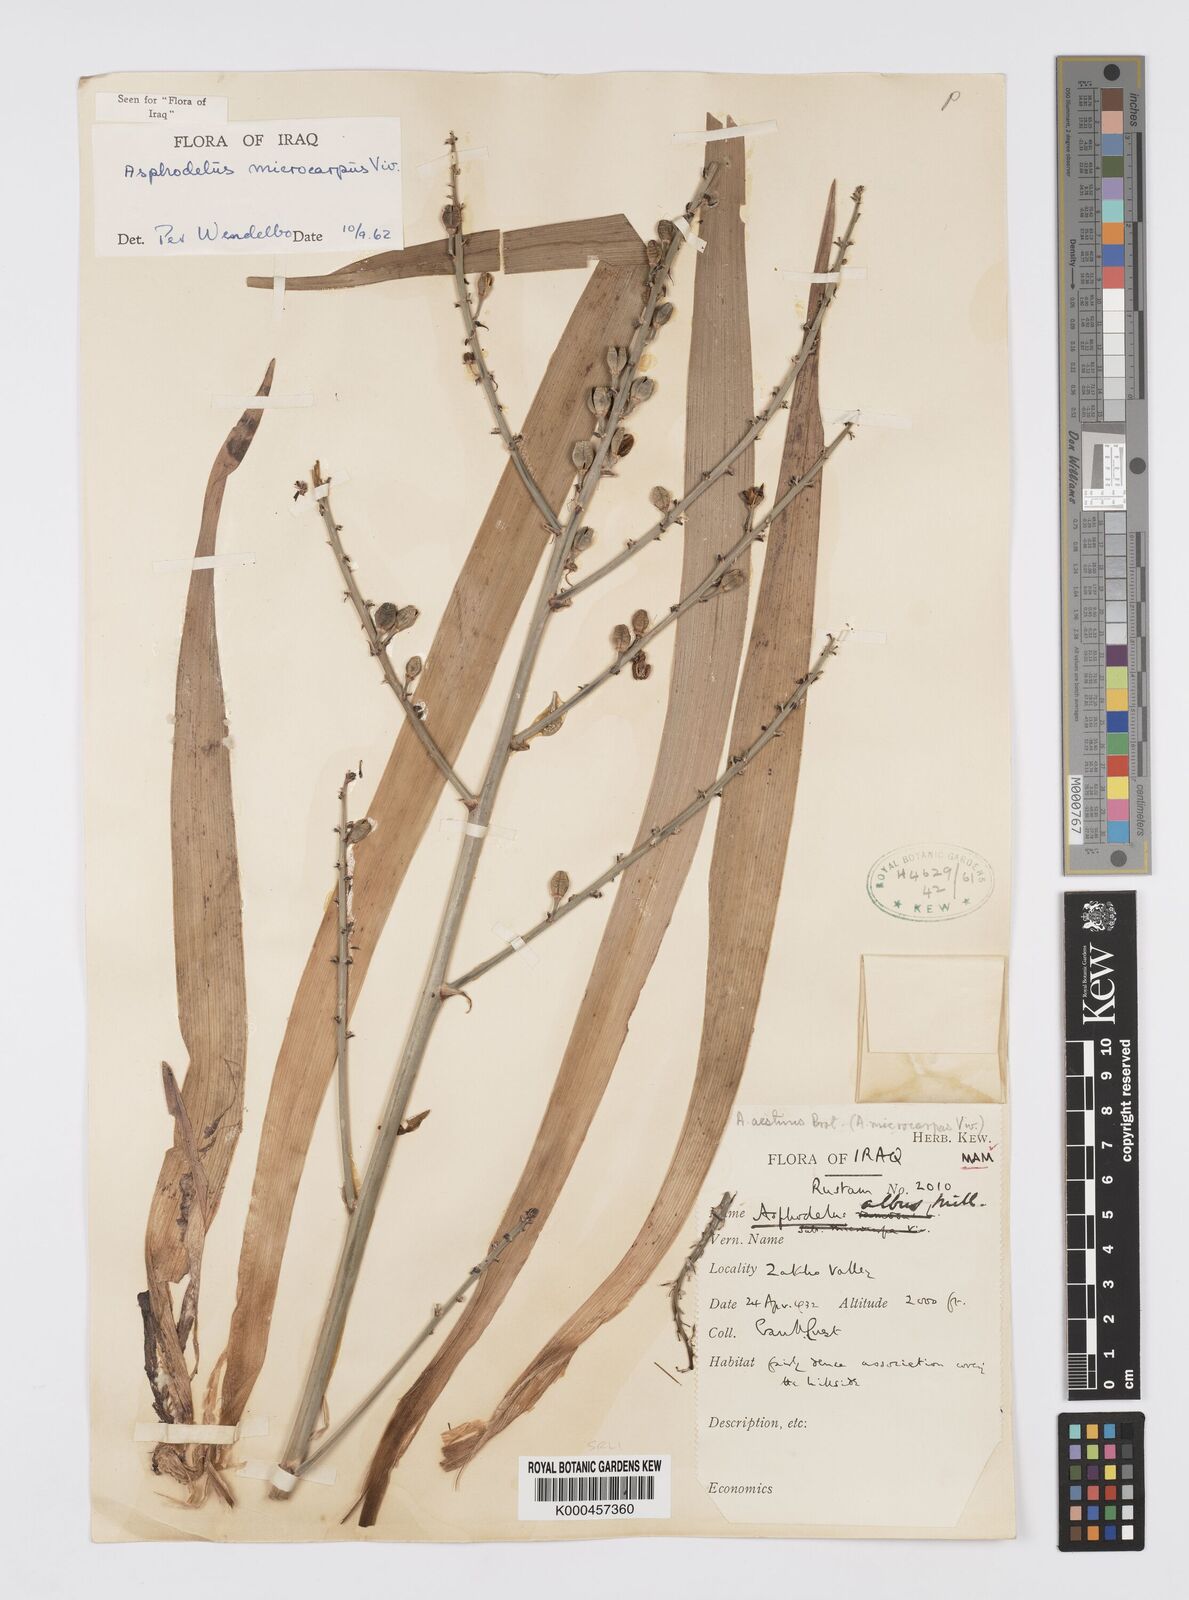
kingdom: Plantae
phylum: Tracheophyta
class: Liliopsida
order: Asparagales
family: Asphodelaceae
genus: Asphodelus
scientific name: Asphodelus aestivus
